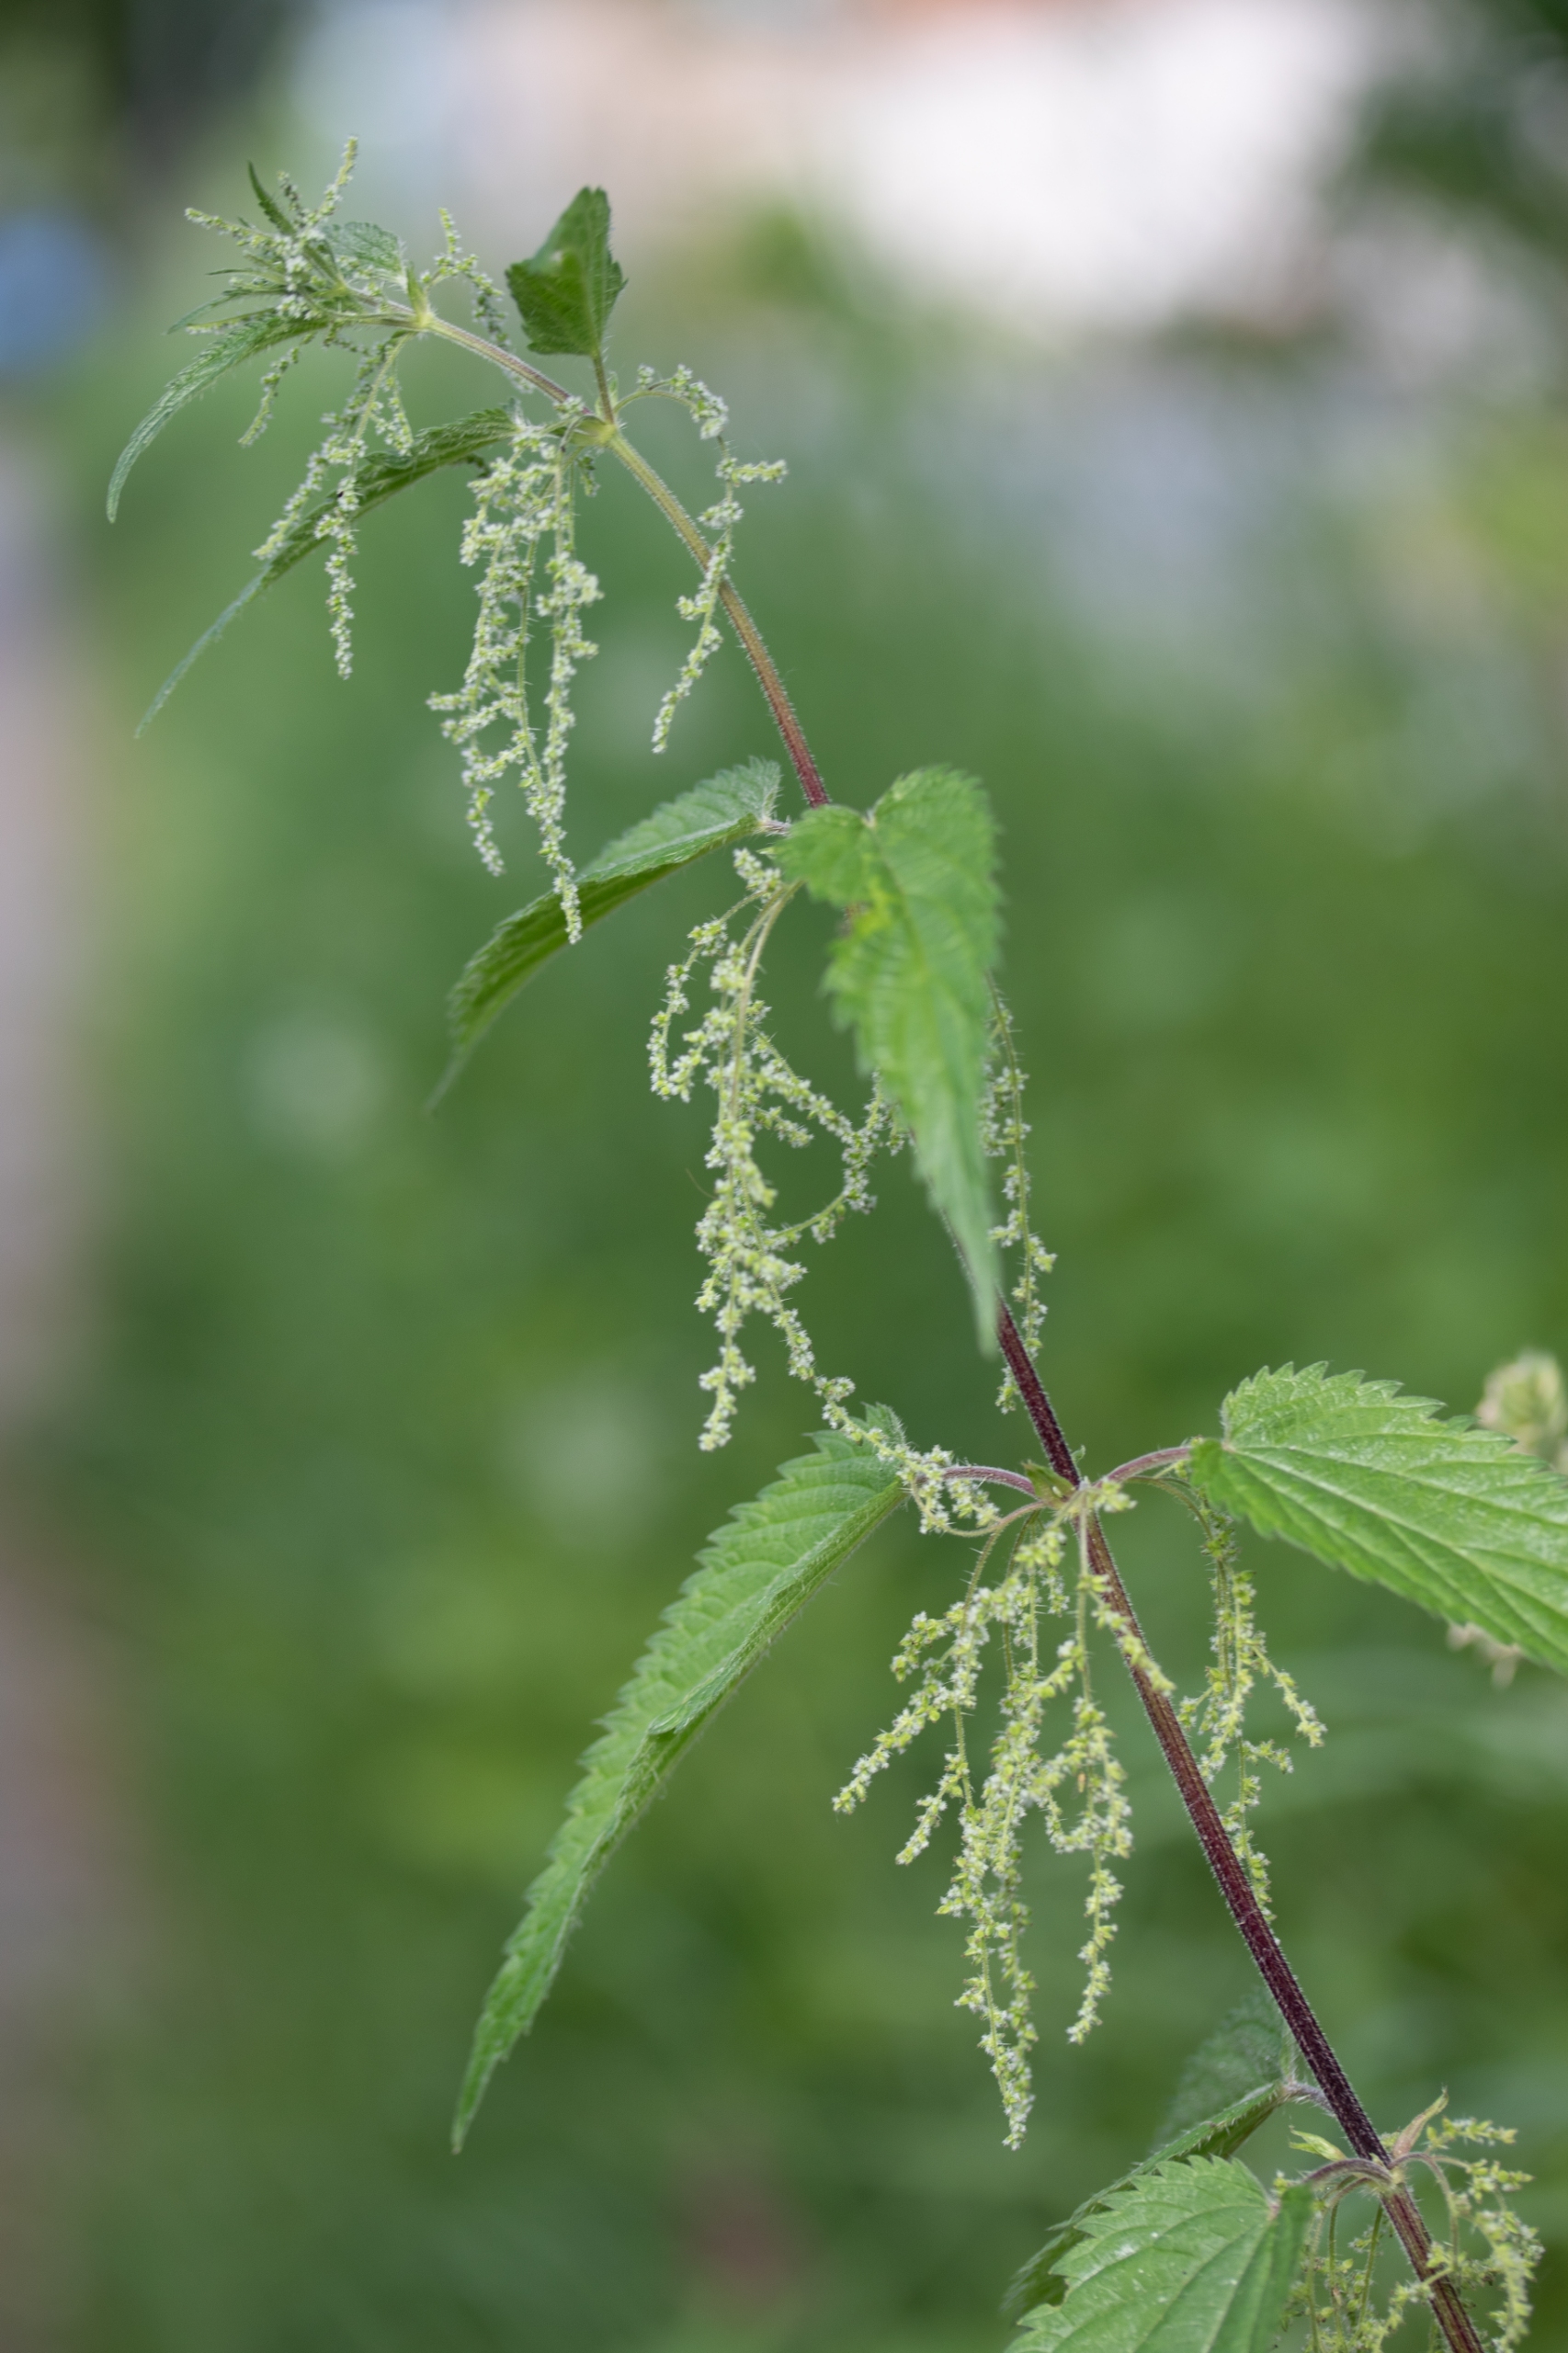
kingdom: Plantae
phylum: Tracheophyta
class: Magnoliopsida
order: Rosales
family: Urticaceae
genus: Urtica
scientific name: Urtica dioica
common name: Stor nælde
